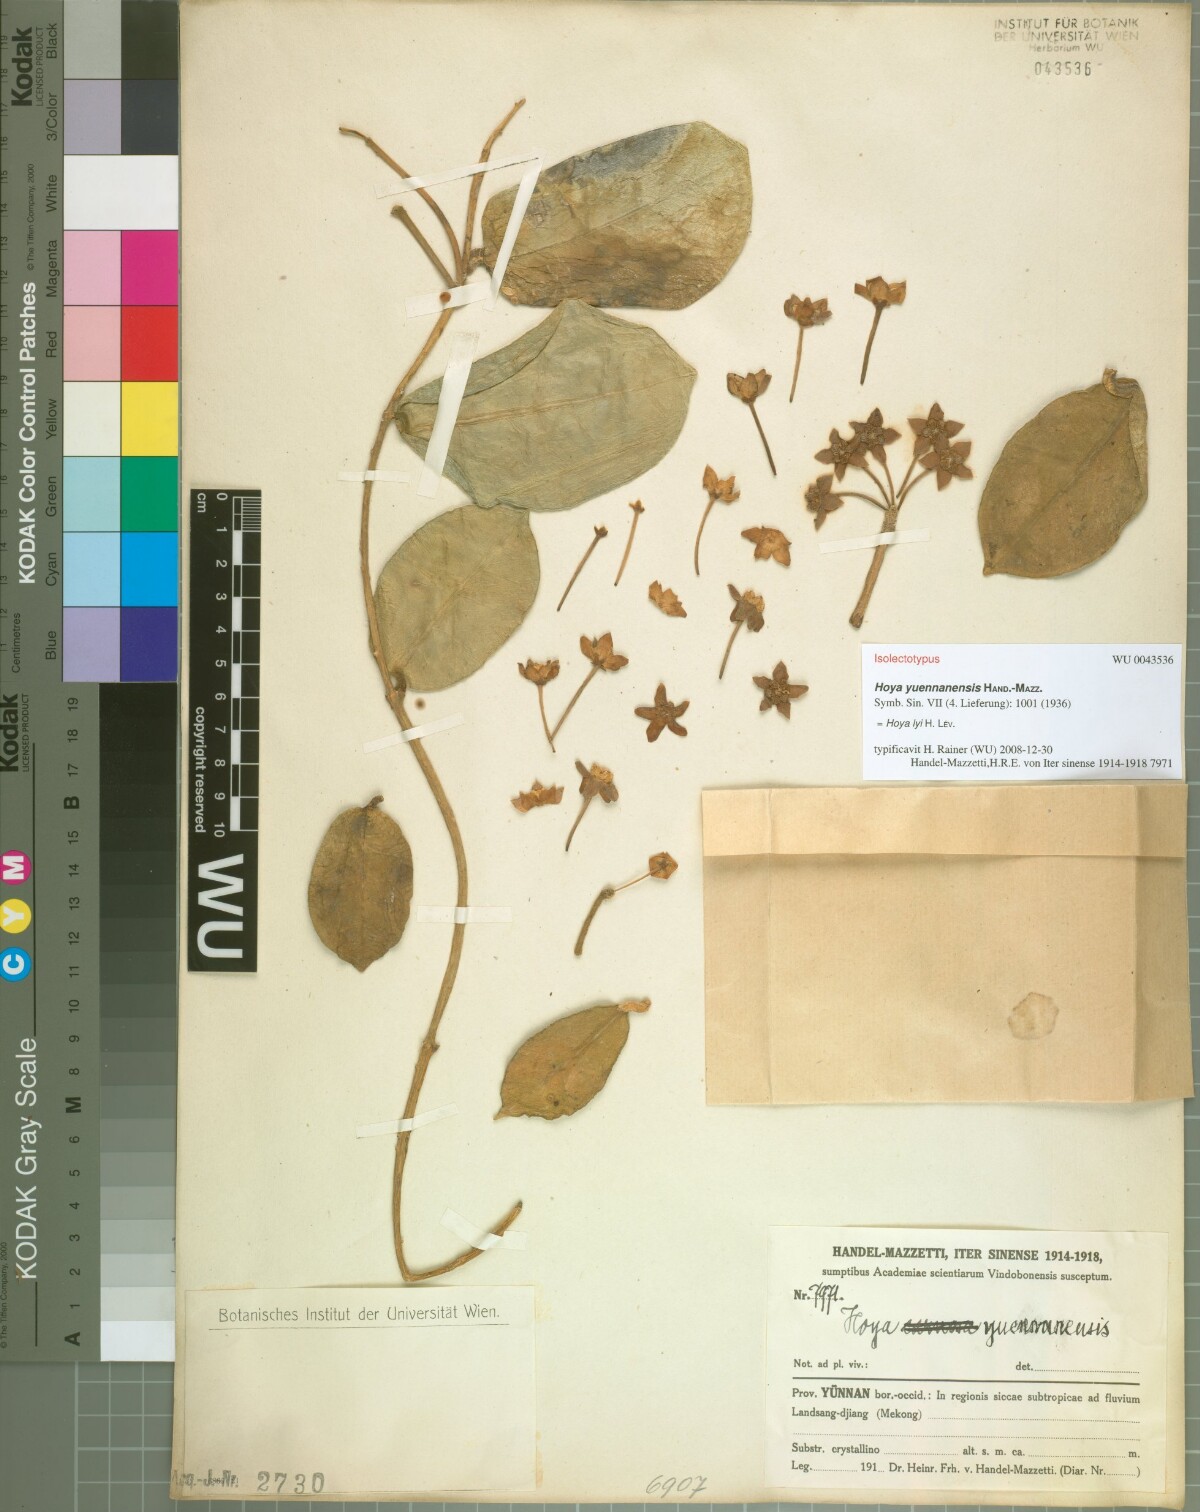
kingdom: Plantae
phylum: Tracheophyta
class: Magnoliopsida
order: Gentianales
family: Apocynaceae
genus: Hoya
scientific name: Hoya yuennanensis
